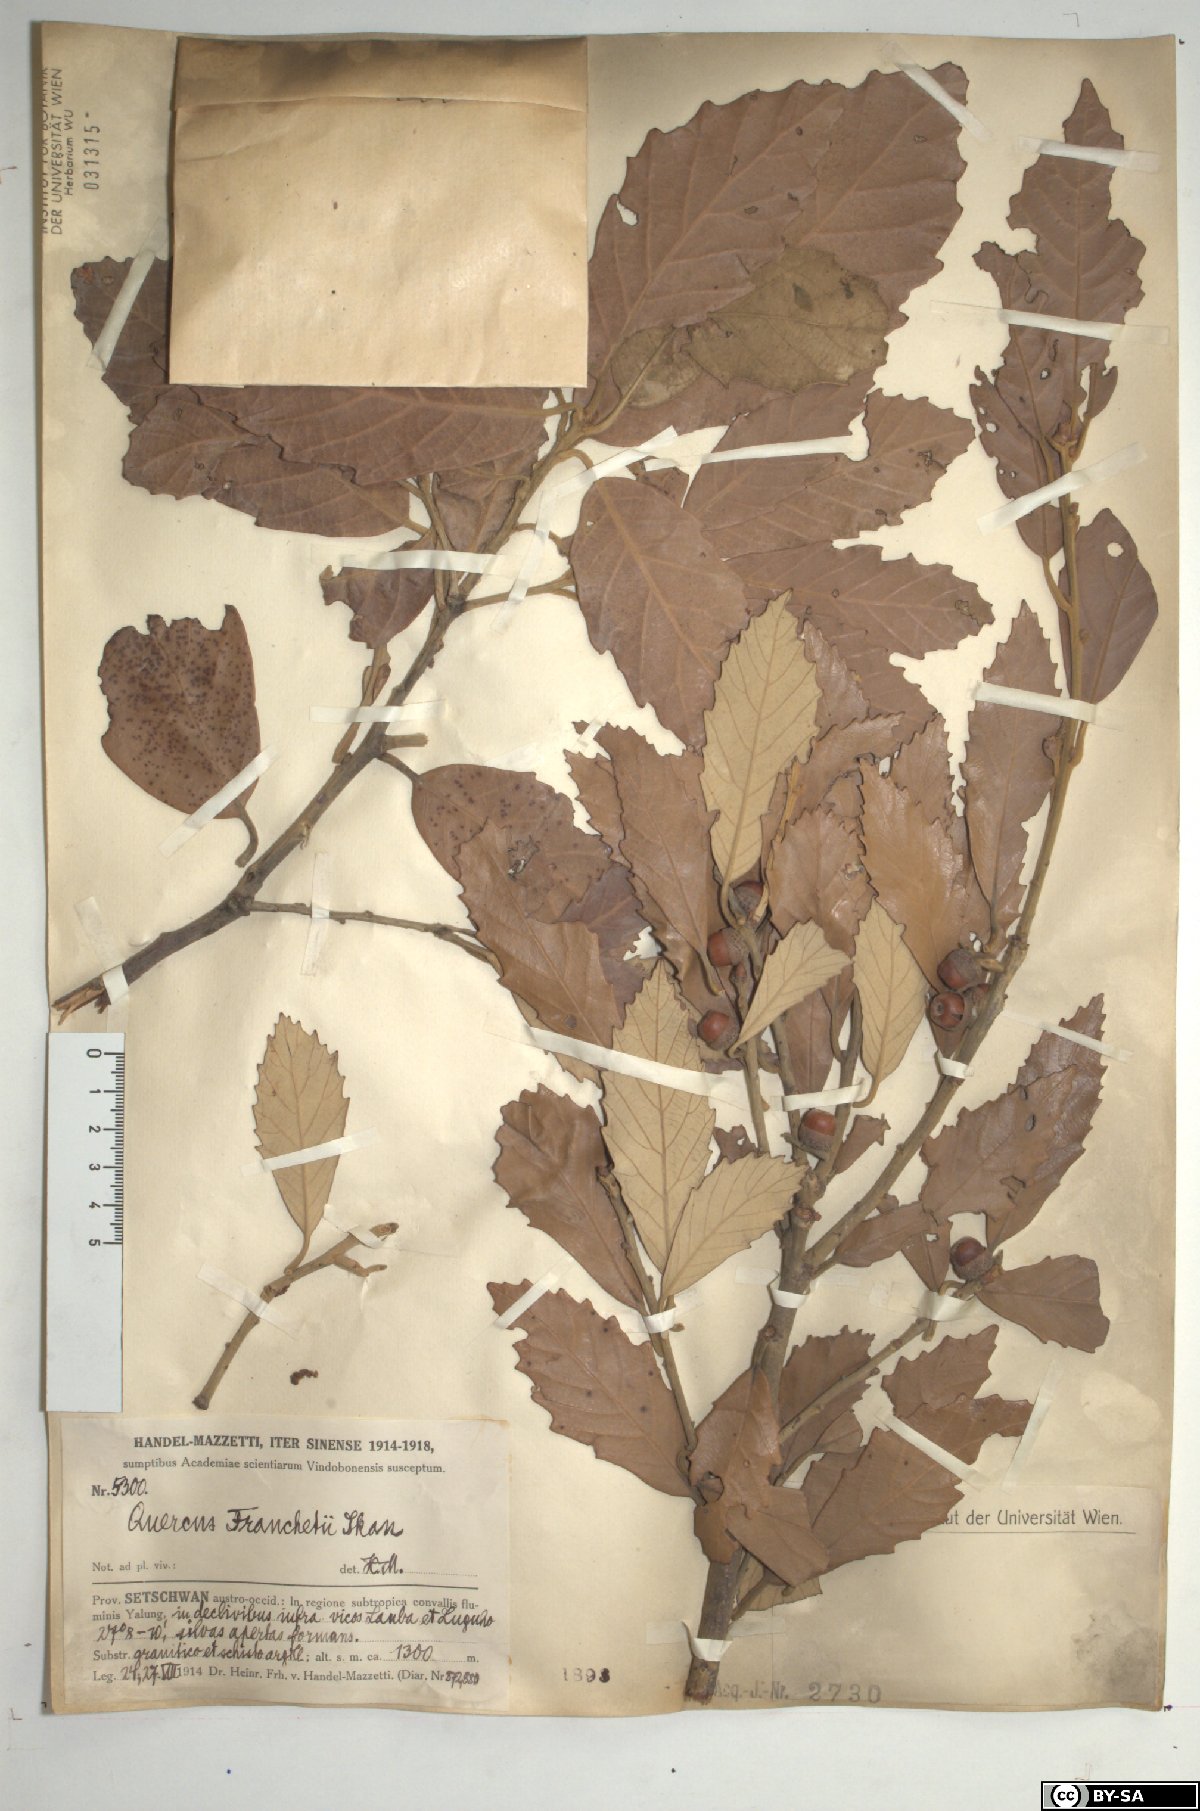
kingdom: Plantae
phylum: Tracheophyta
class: Magnoliopsida
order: Fagales
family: Fagaceae
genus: Quercus
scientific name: Quercus franchetii
